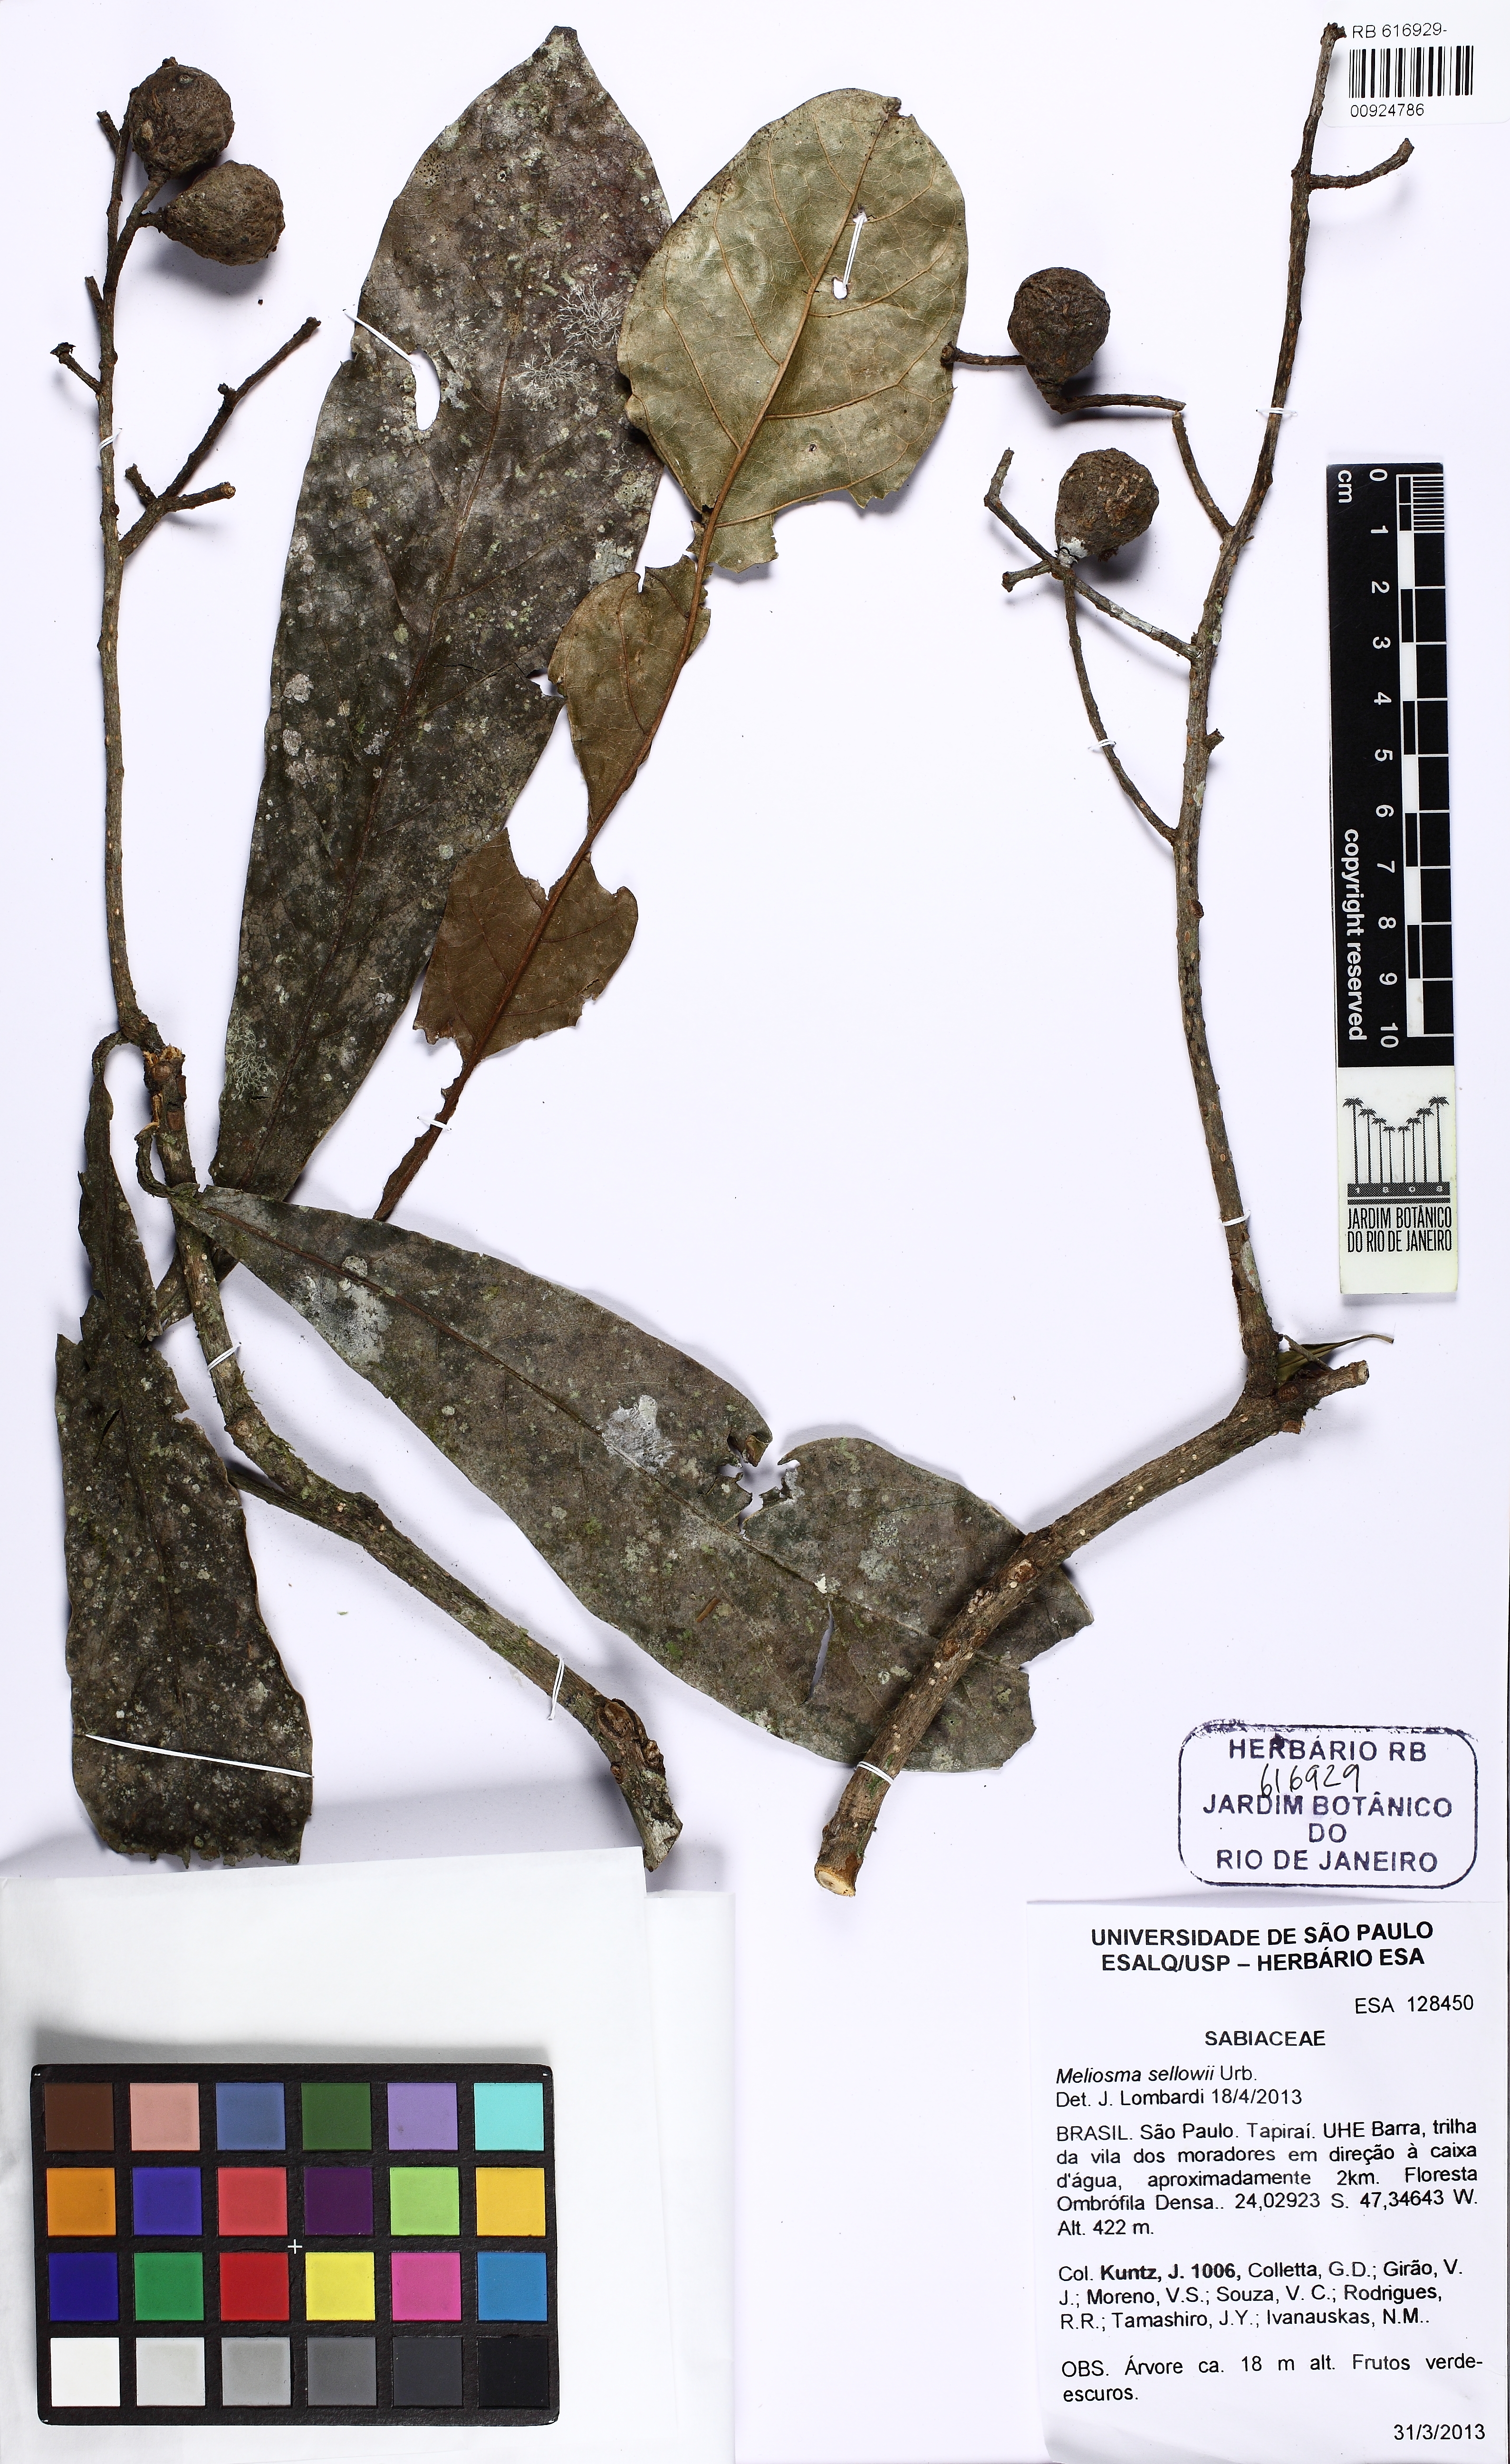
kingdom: Plantae
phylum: Tracheophyta
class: Magnoliopsida
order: Proteales
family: Sabiaceae
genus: Meliosma
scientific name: Meliosma sellowii
